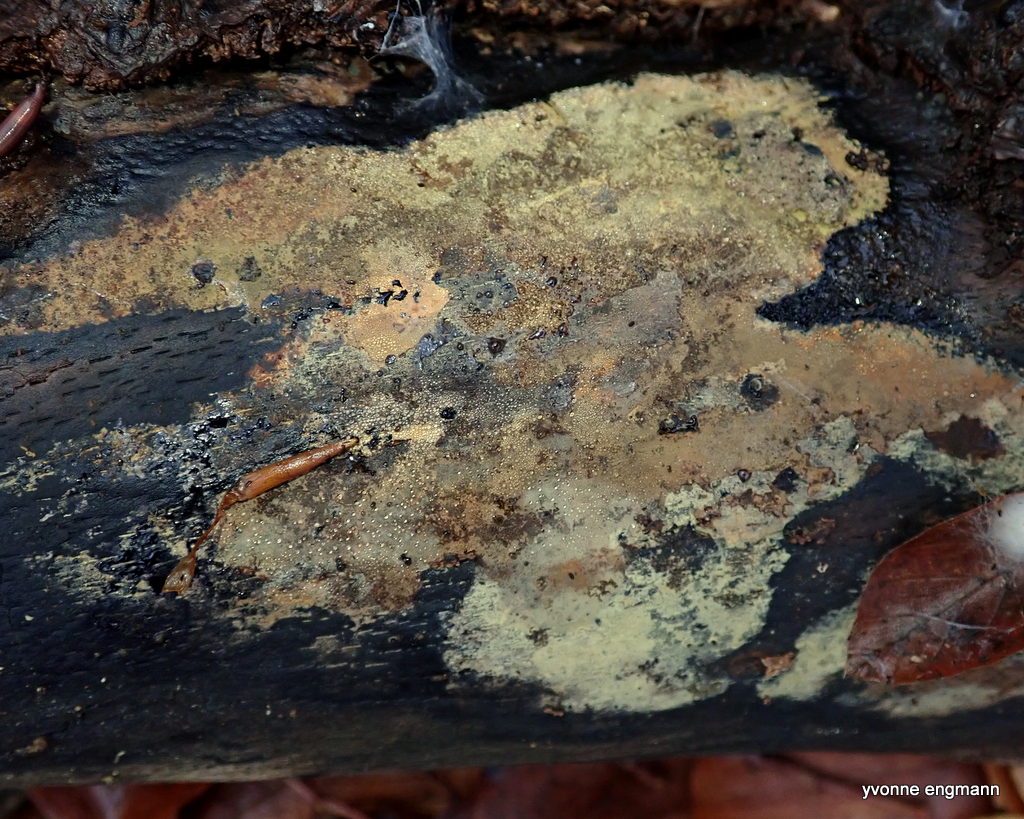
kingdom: Fungi
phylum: Ascomycota
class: Sordariomycetes
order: Xylariales
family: Hypoxylaceae
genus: Hypoxylon
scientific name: Hypoxylon
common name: kulbær
